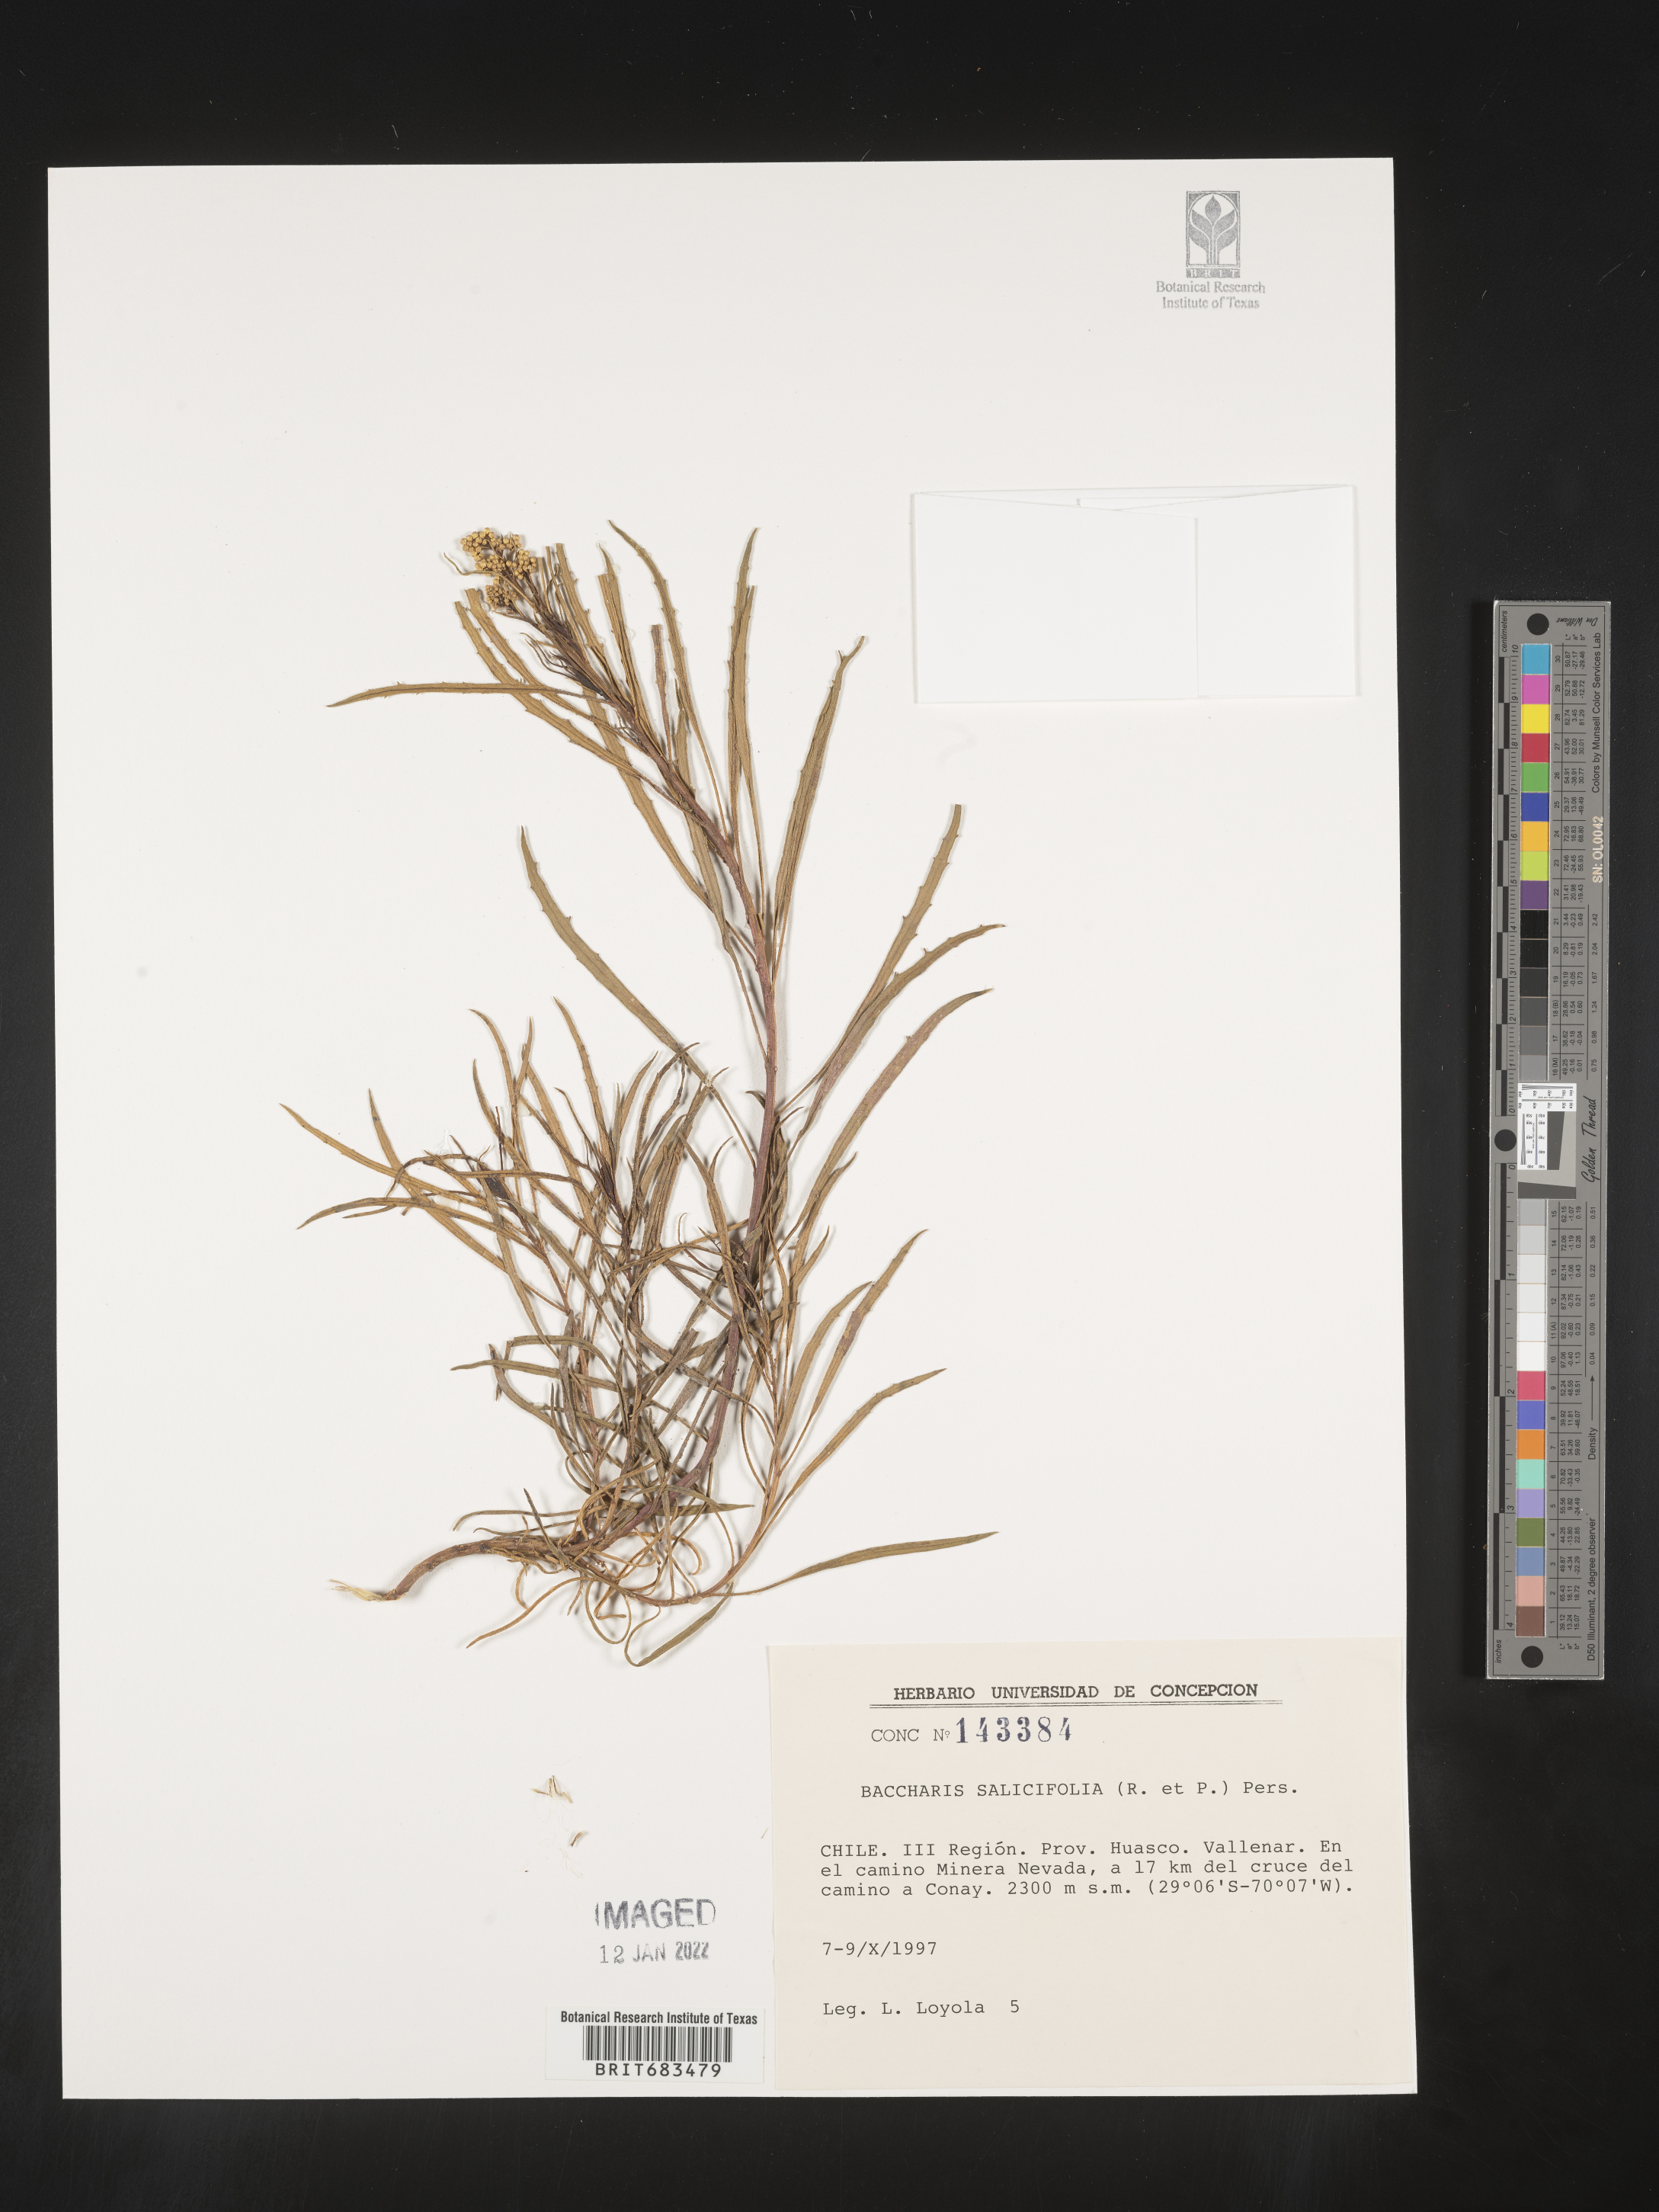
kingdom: Plantae
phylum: Tracheophyta
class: Magnoliopsida
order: Asterales
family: Asteraceae
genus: Baccharis
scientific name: Baccharis
